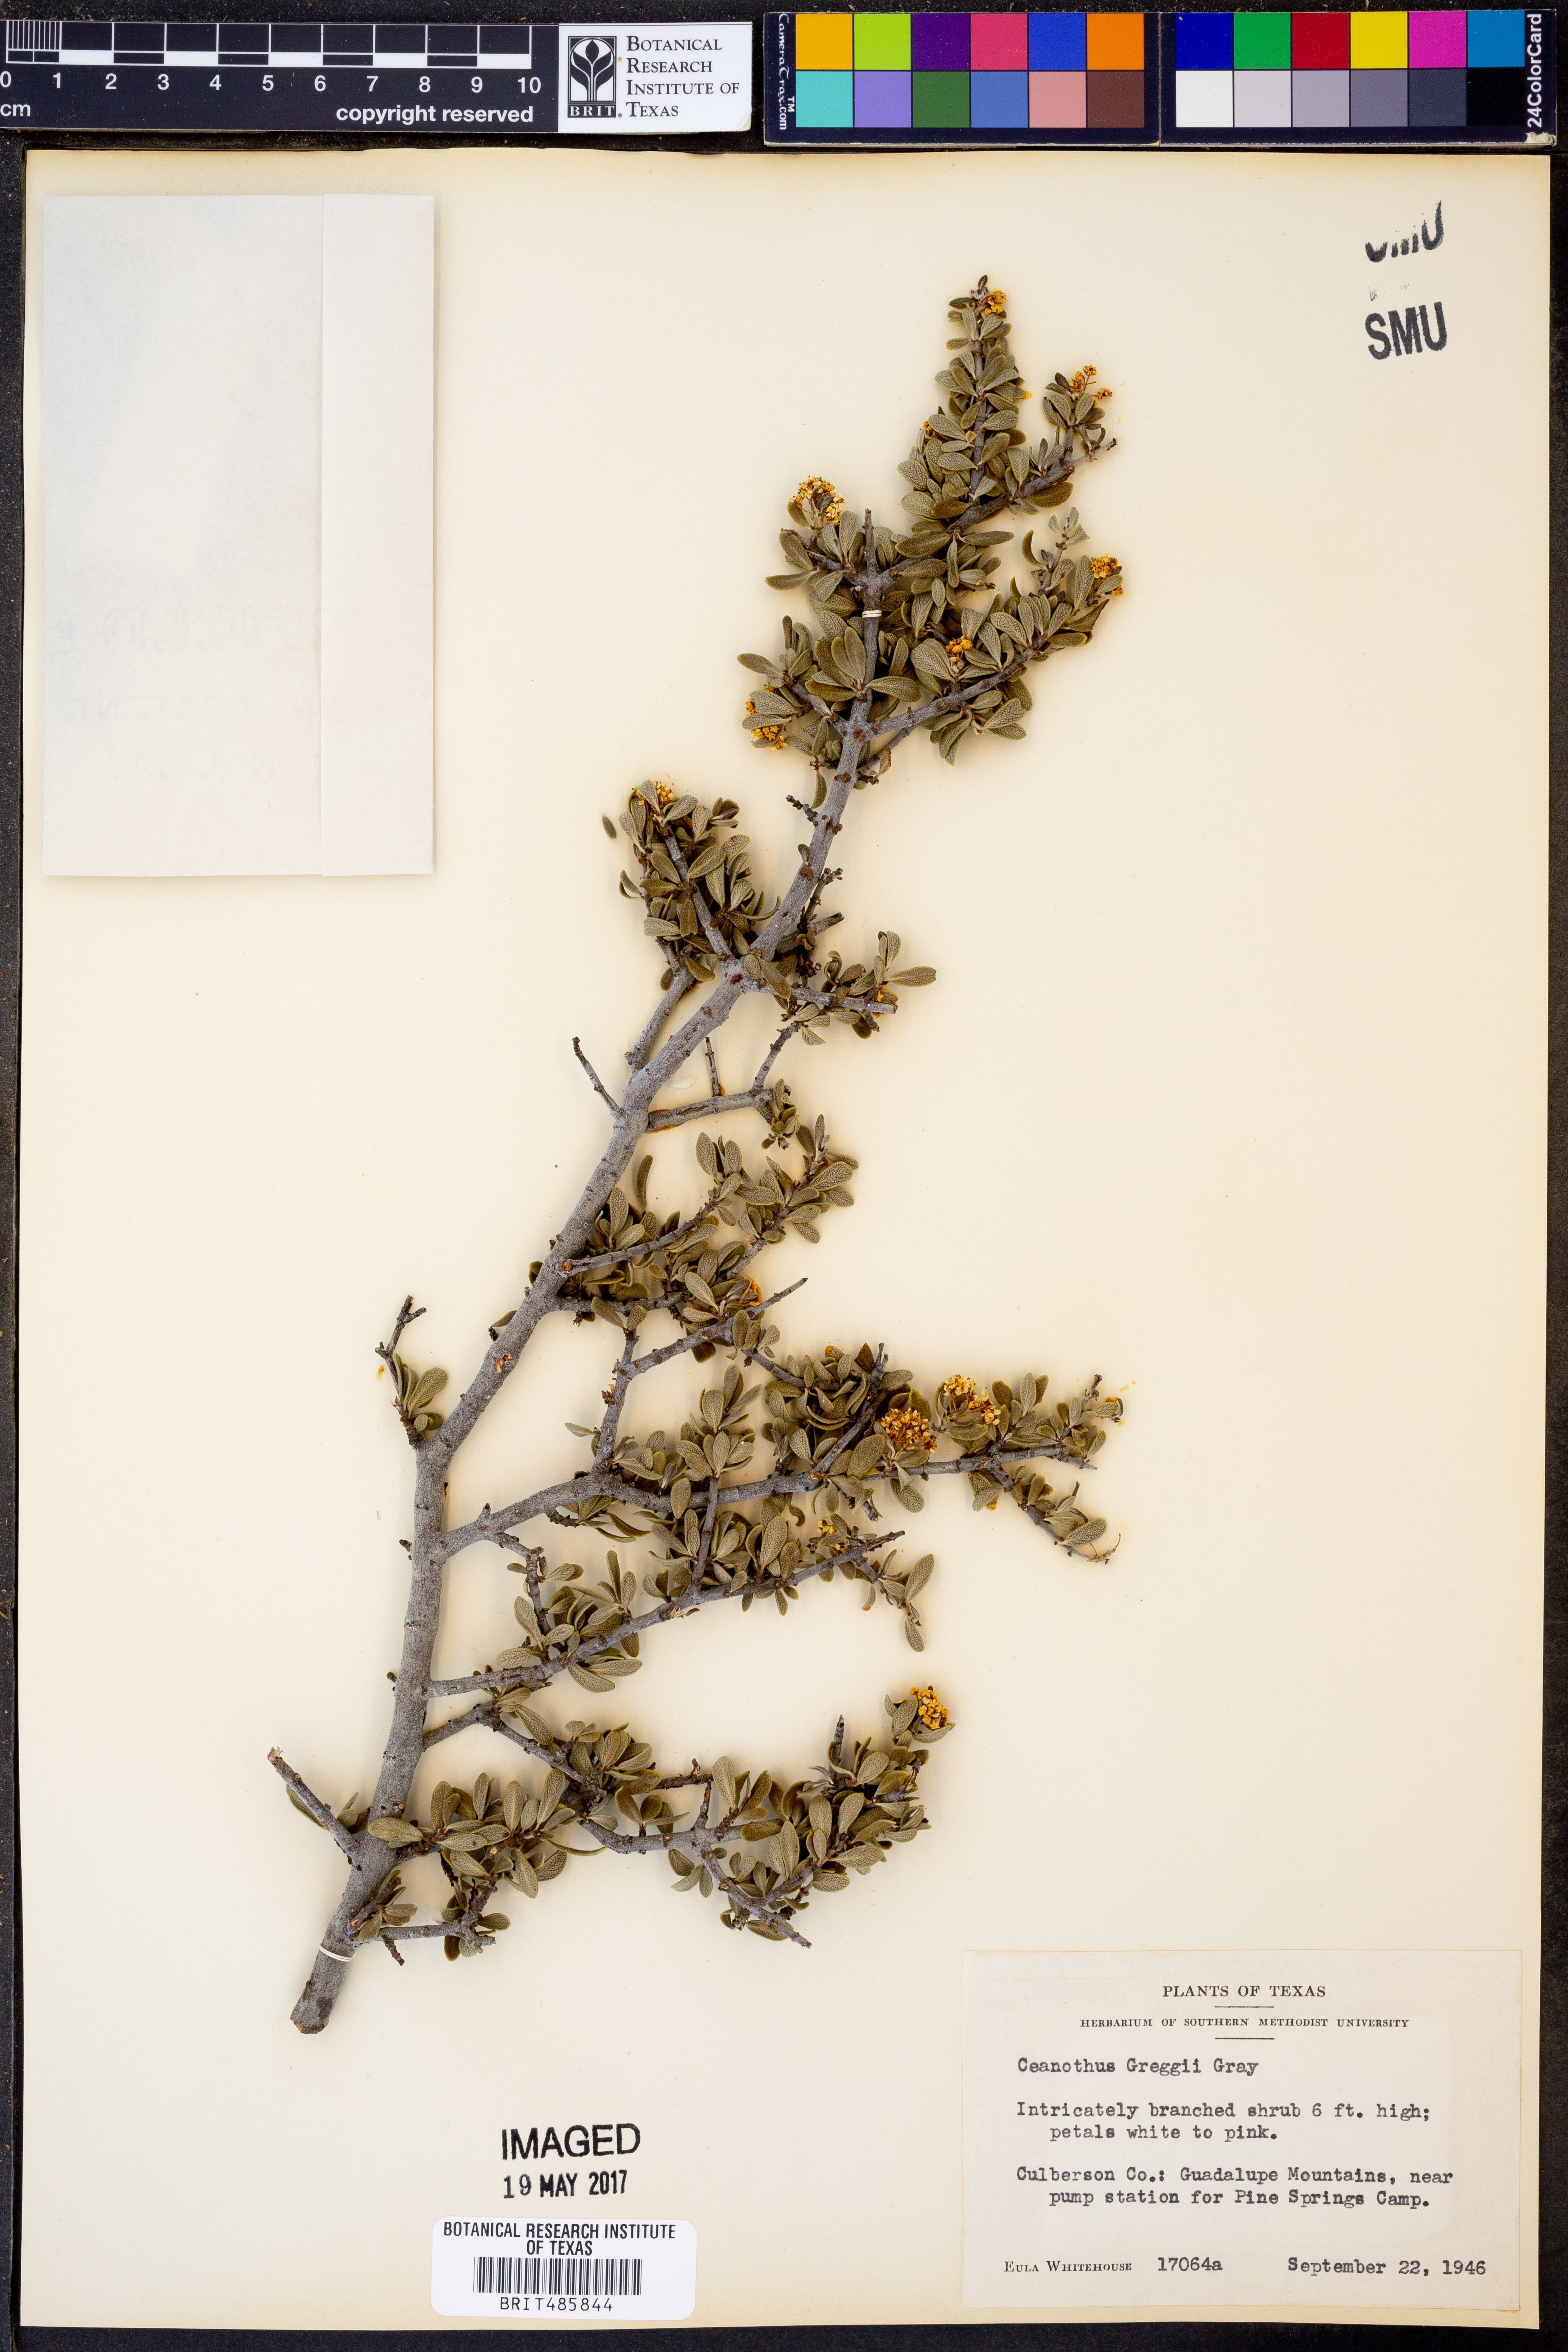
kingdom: Plantae
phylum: Tracheophyta
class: Magnoliopsida
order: Rosales
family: Rhamnaceae
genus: Ceanothus
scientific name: Ceanothus pauciflorus
